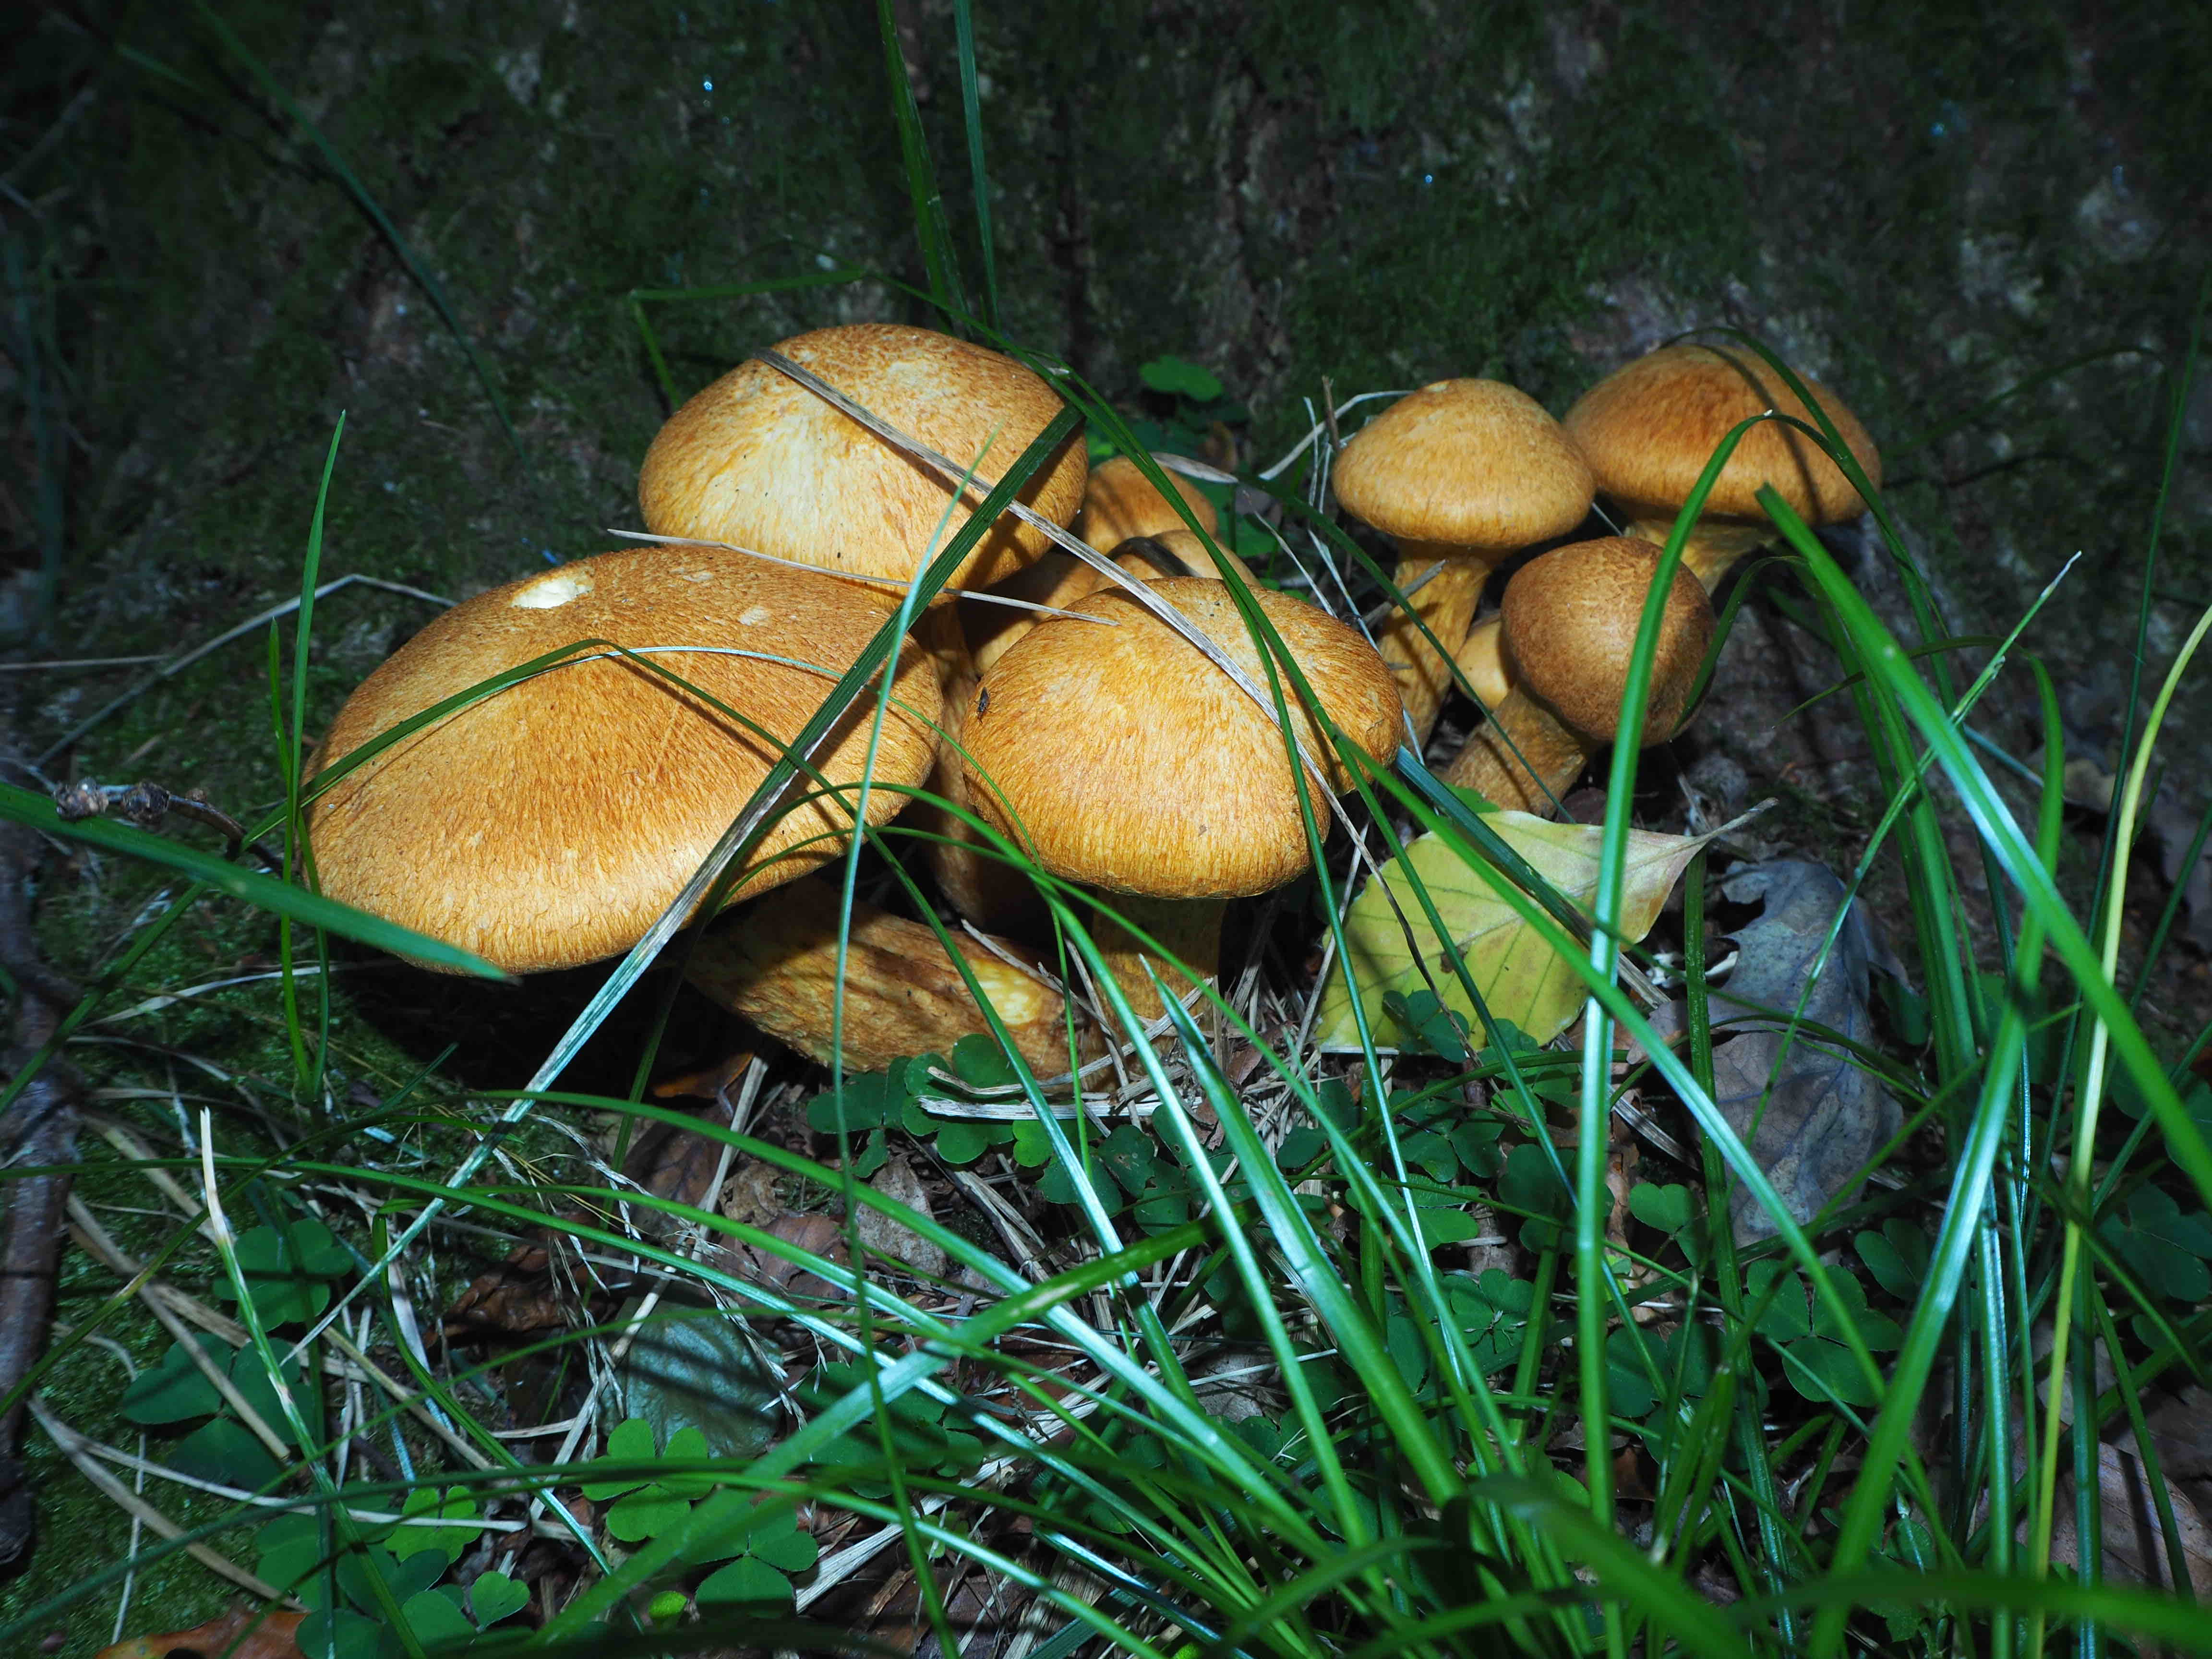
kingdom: Fungi
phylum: Basidiomycota
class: Agaricomycetes
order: Agaricales
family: Hymenogastraceae
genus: Gymnopilus
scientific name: Gymnopilus spectabilis
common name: fibret flammehat
